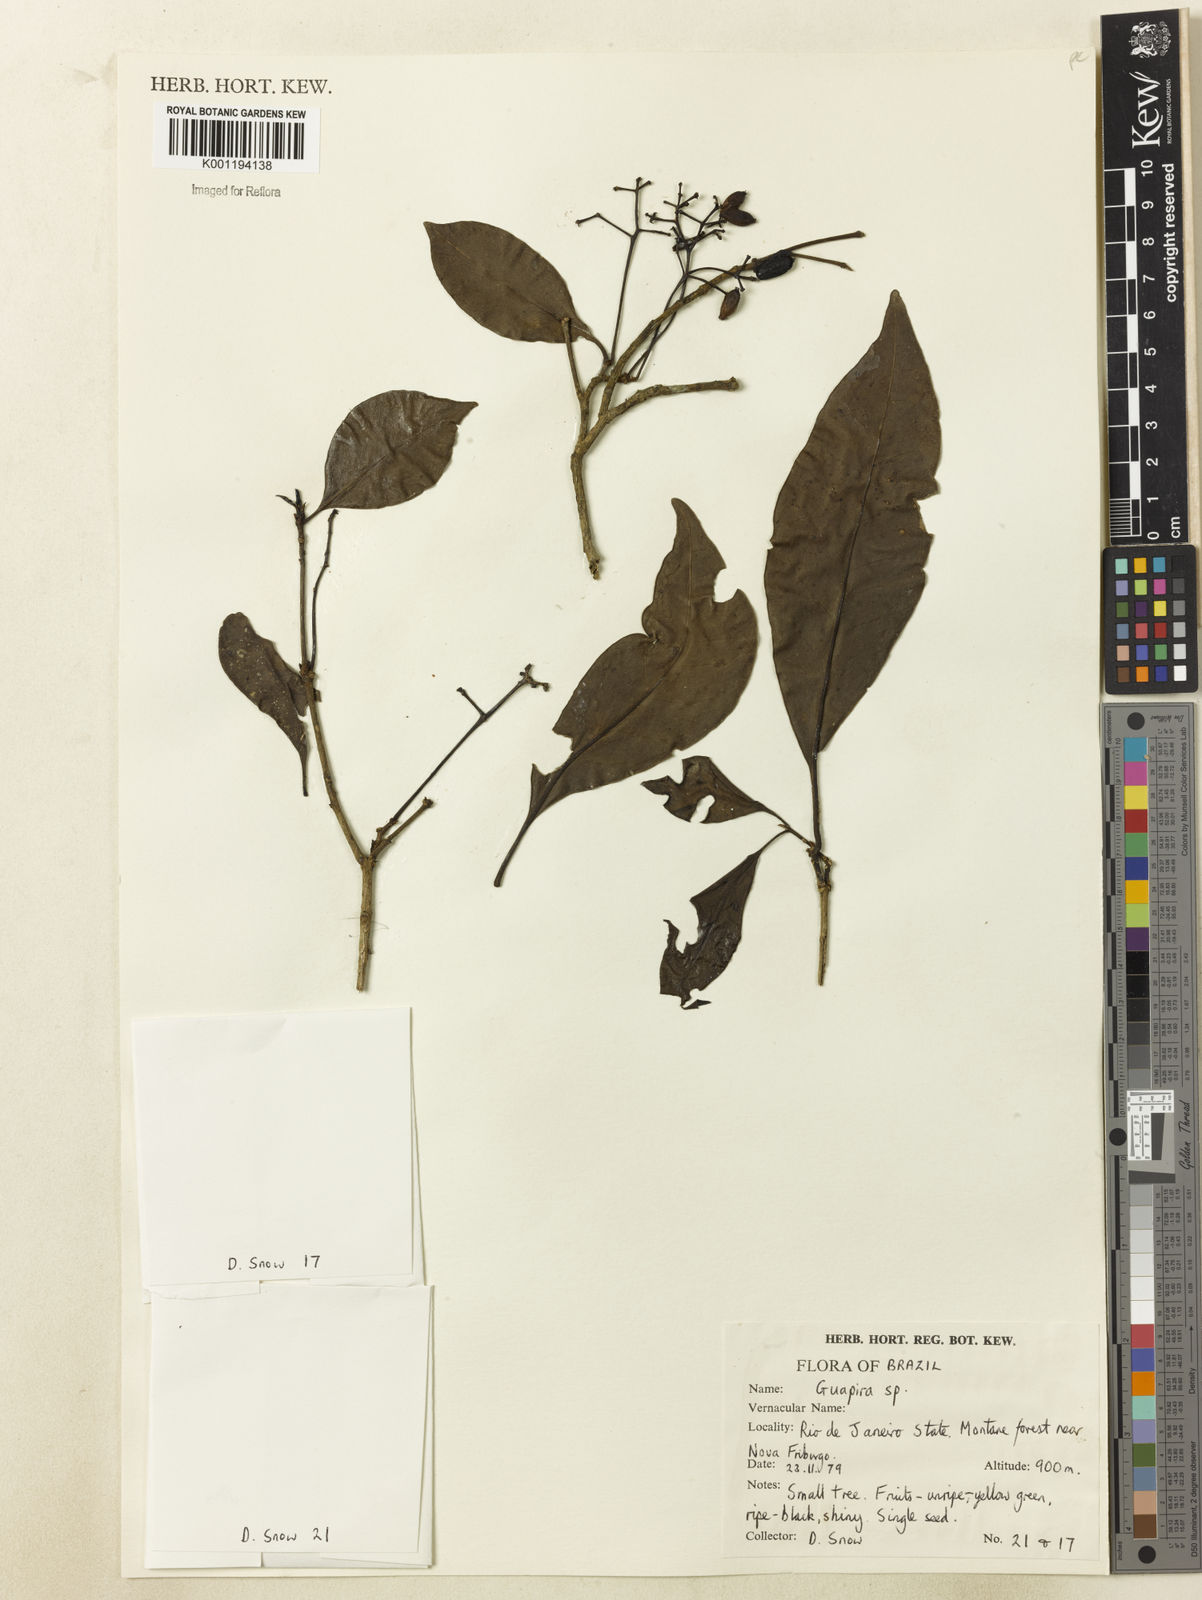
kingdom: Plantae
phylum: Tracheophyta
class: Magnoliopsida
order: Caryophyllales
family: Nyctaginaceae
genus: Guapira
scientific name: Guapira
